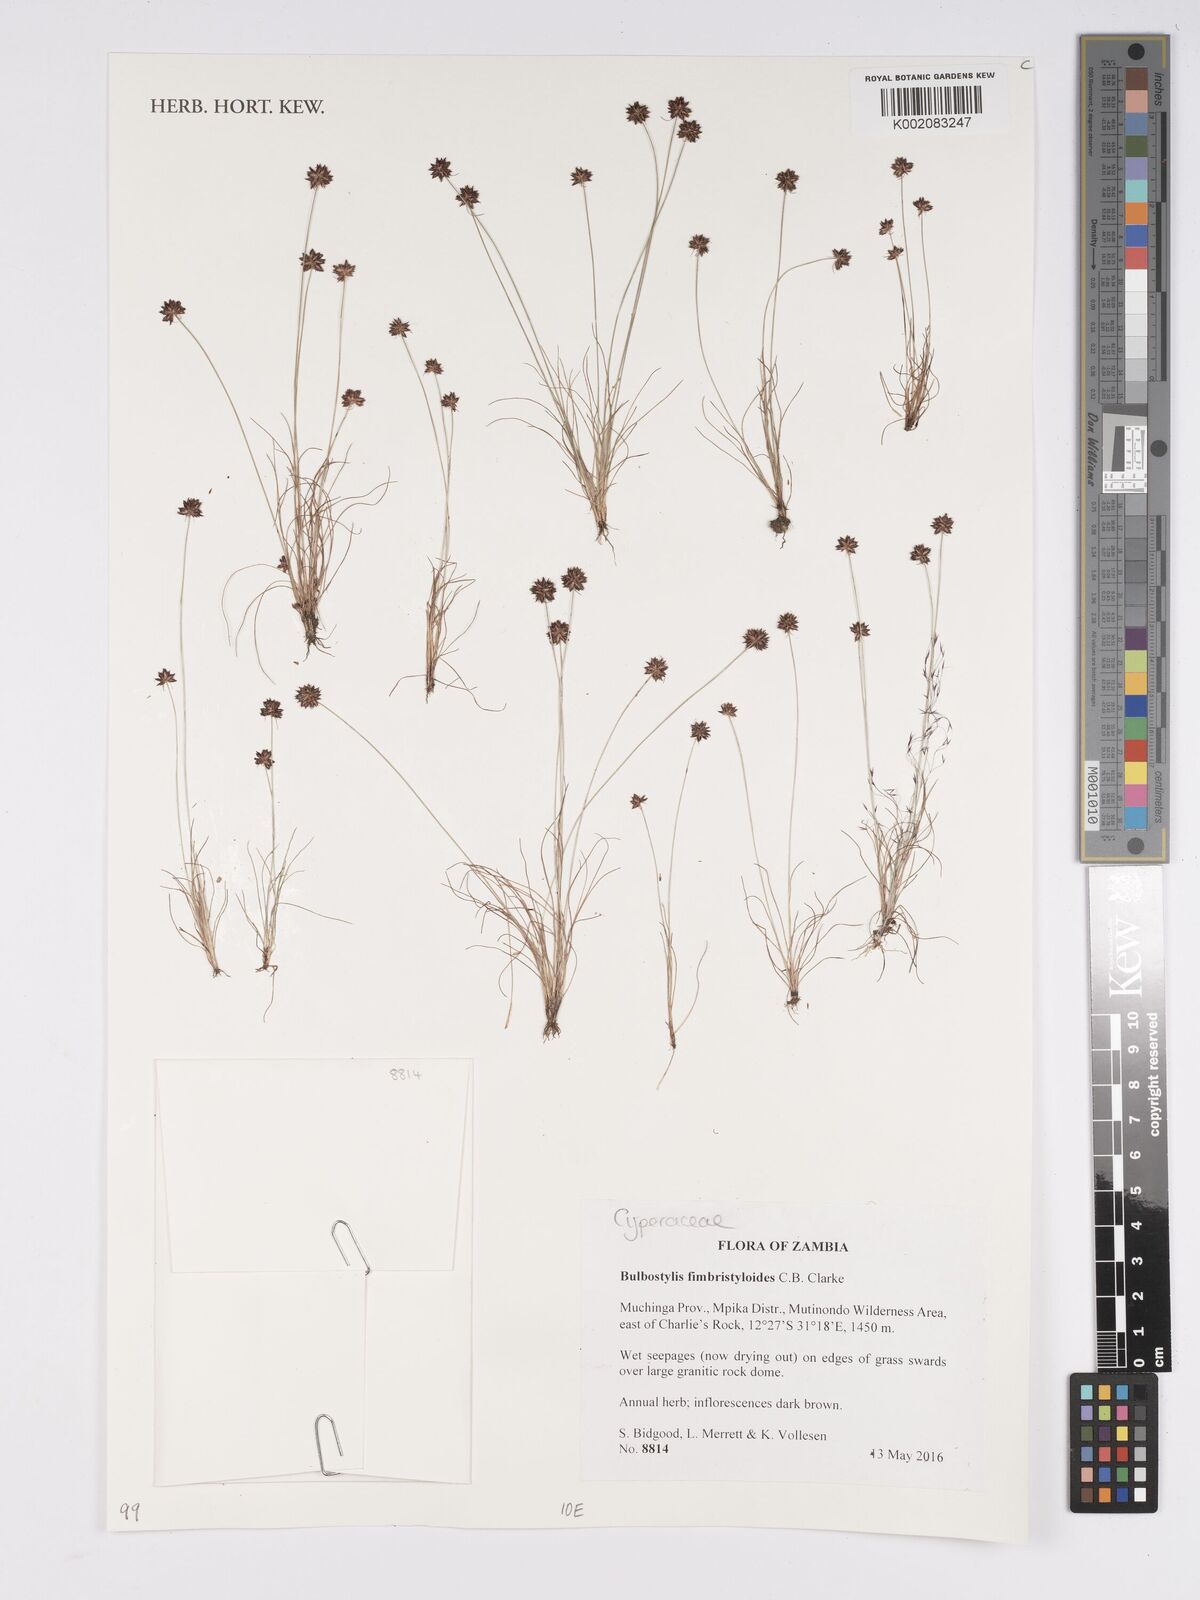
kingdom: Plantae
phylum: Tracheophyta
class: Liliopsida
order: Poales
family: Cyperaceae
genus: Bulbostylis
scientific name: Bulbostylis fimbristyloides
